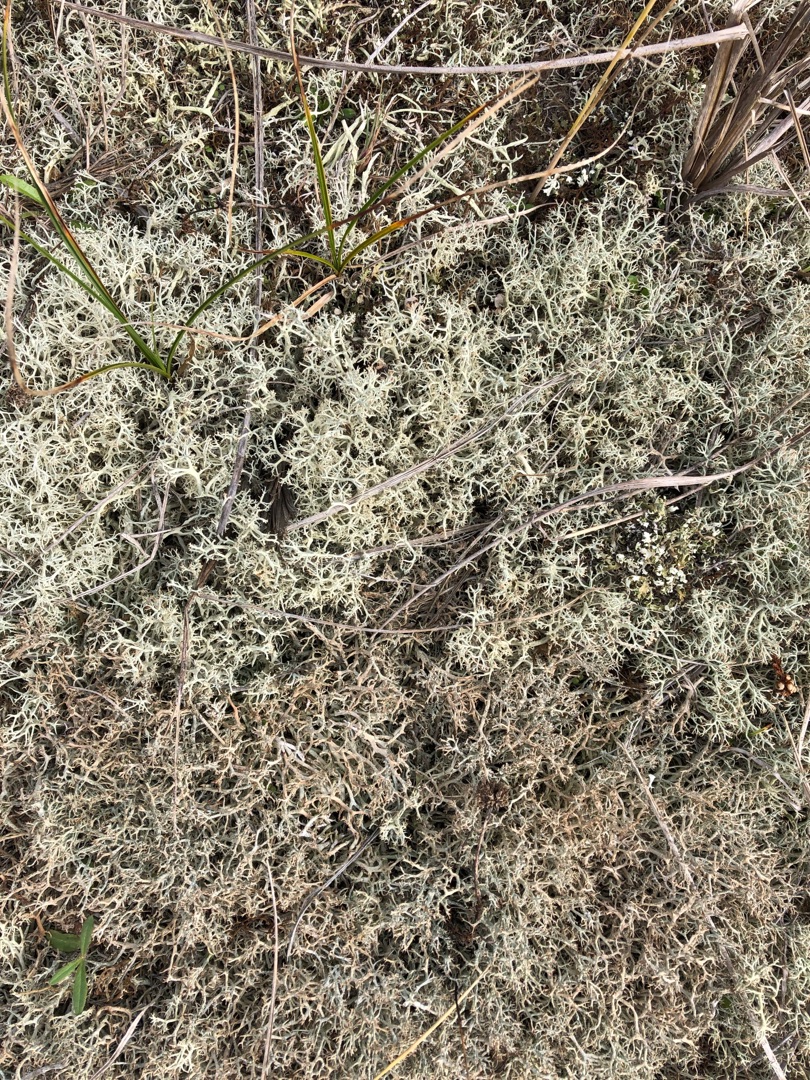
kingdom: Fungi
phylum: Ascomycota
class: Lecanoromycetes
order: Lecanorales
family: Cladoniaceae
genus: Cladonia
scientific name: Cladonia portentosa
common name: Hede-rensdyrlav
